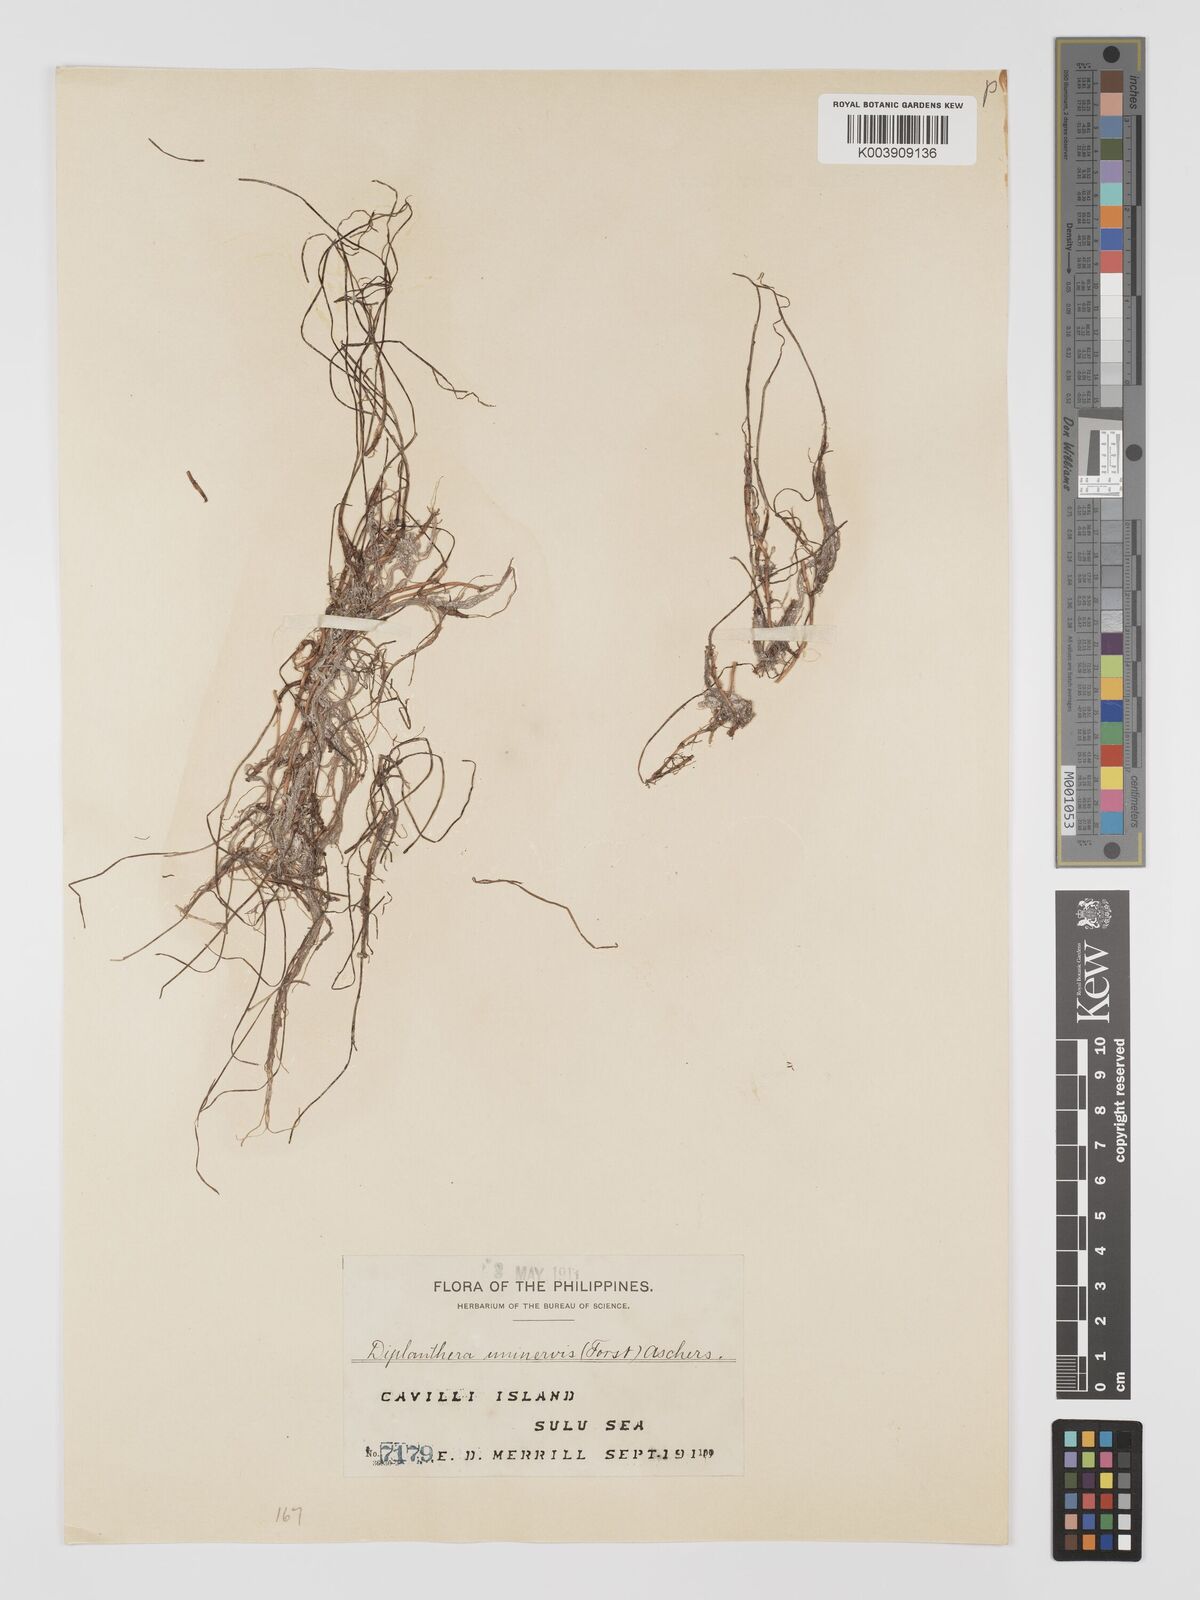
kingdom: Plantae
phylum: Tracheophyta
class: Liliopsida
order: Alismatales
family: Cymodoceaceae
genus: Halodule
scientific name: Halodule uninervis
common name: Narrowleaf seagrass
